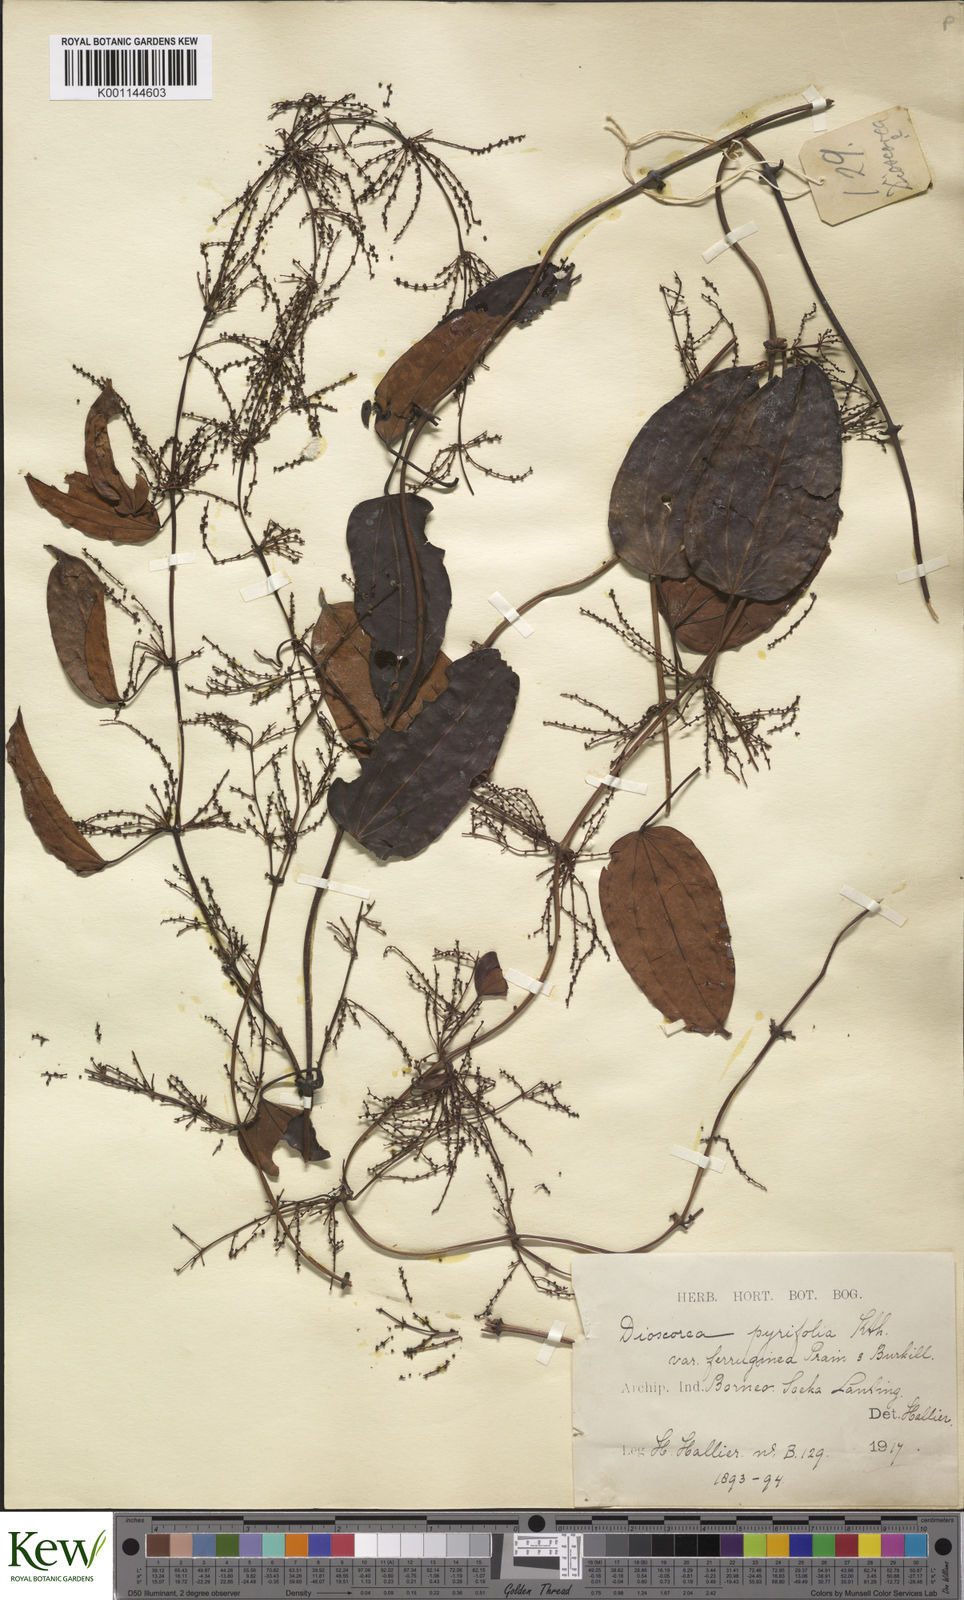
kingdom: Plantae
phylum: Tracheophyta
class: Liliopsida
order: Dioscoreales
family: Dioscoreaceae
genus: Dioscorea
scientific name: Dioscorea pyrifolia
